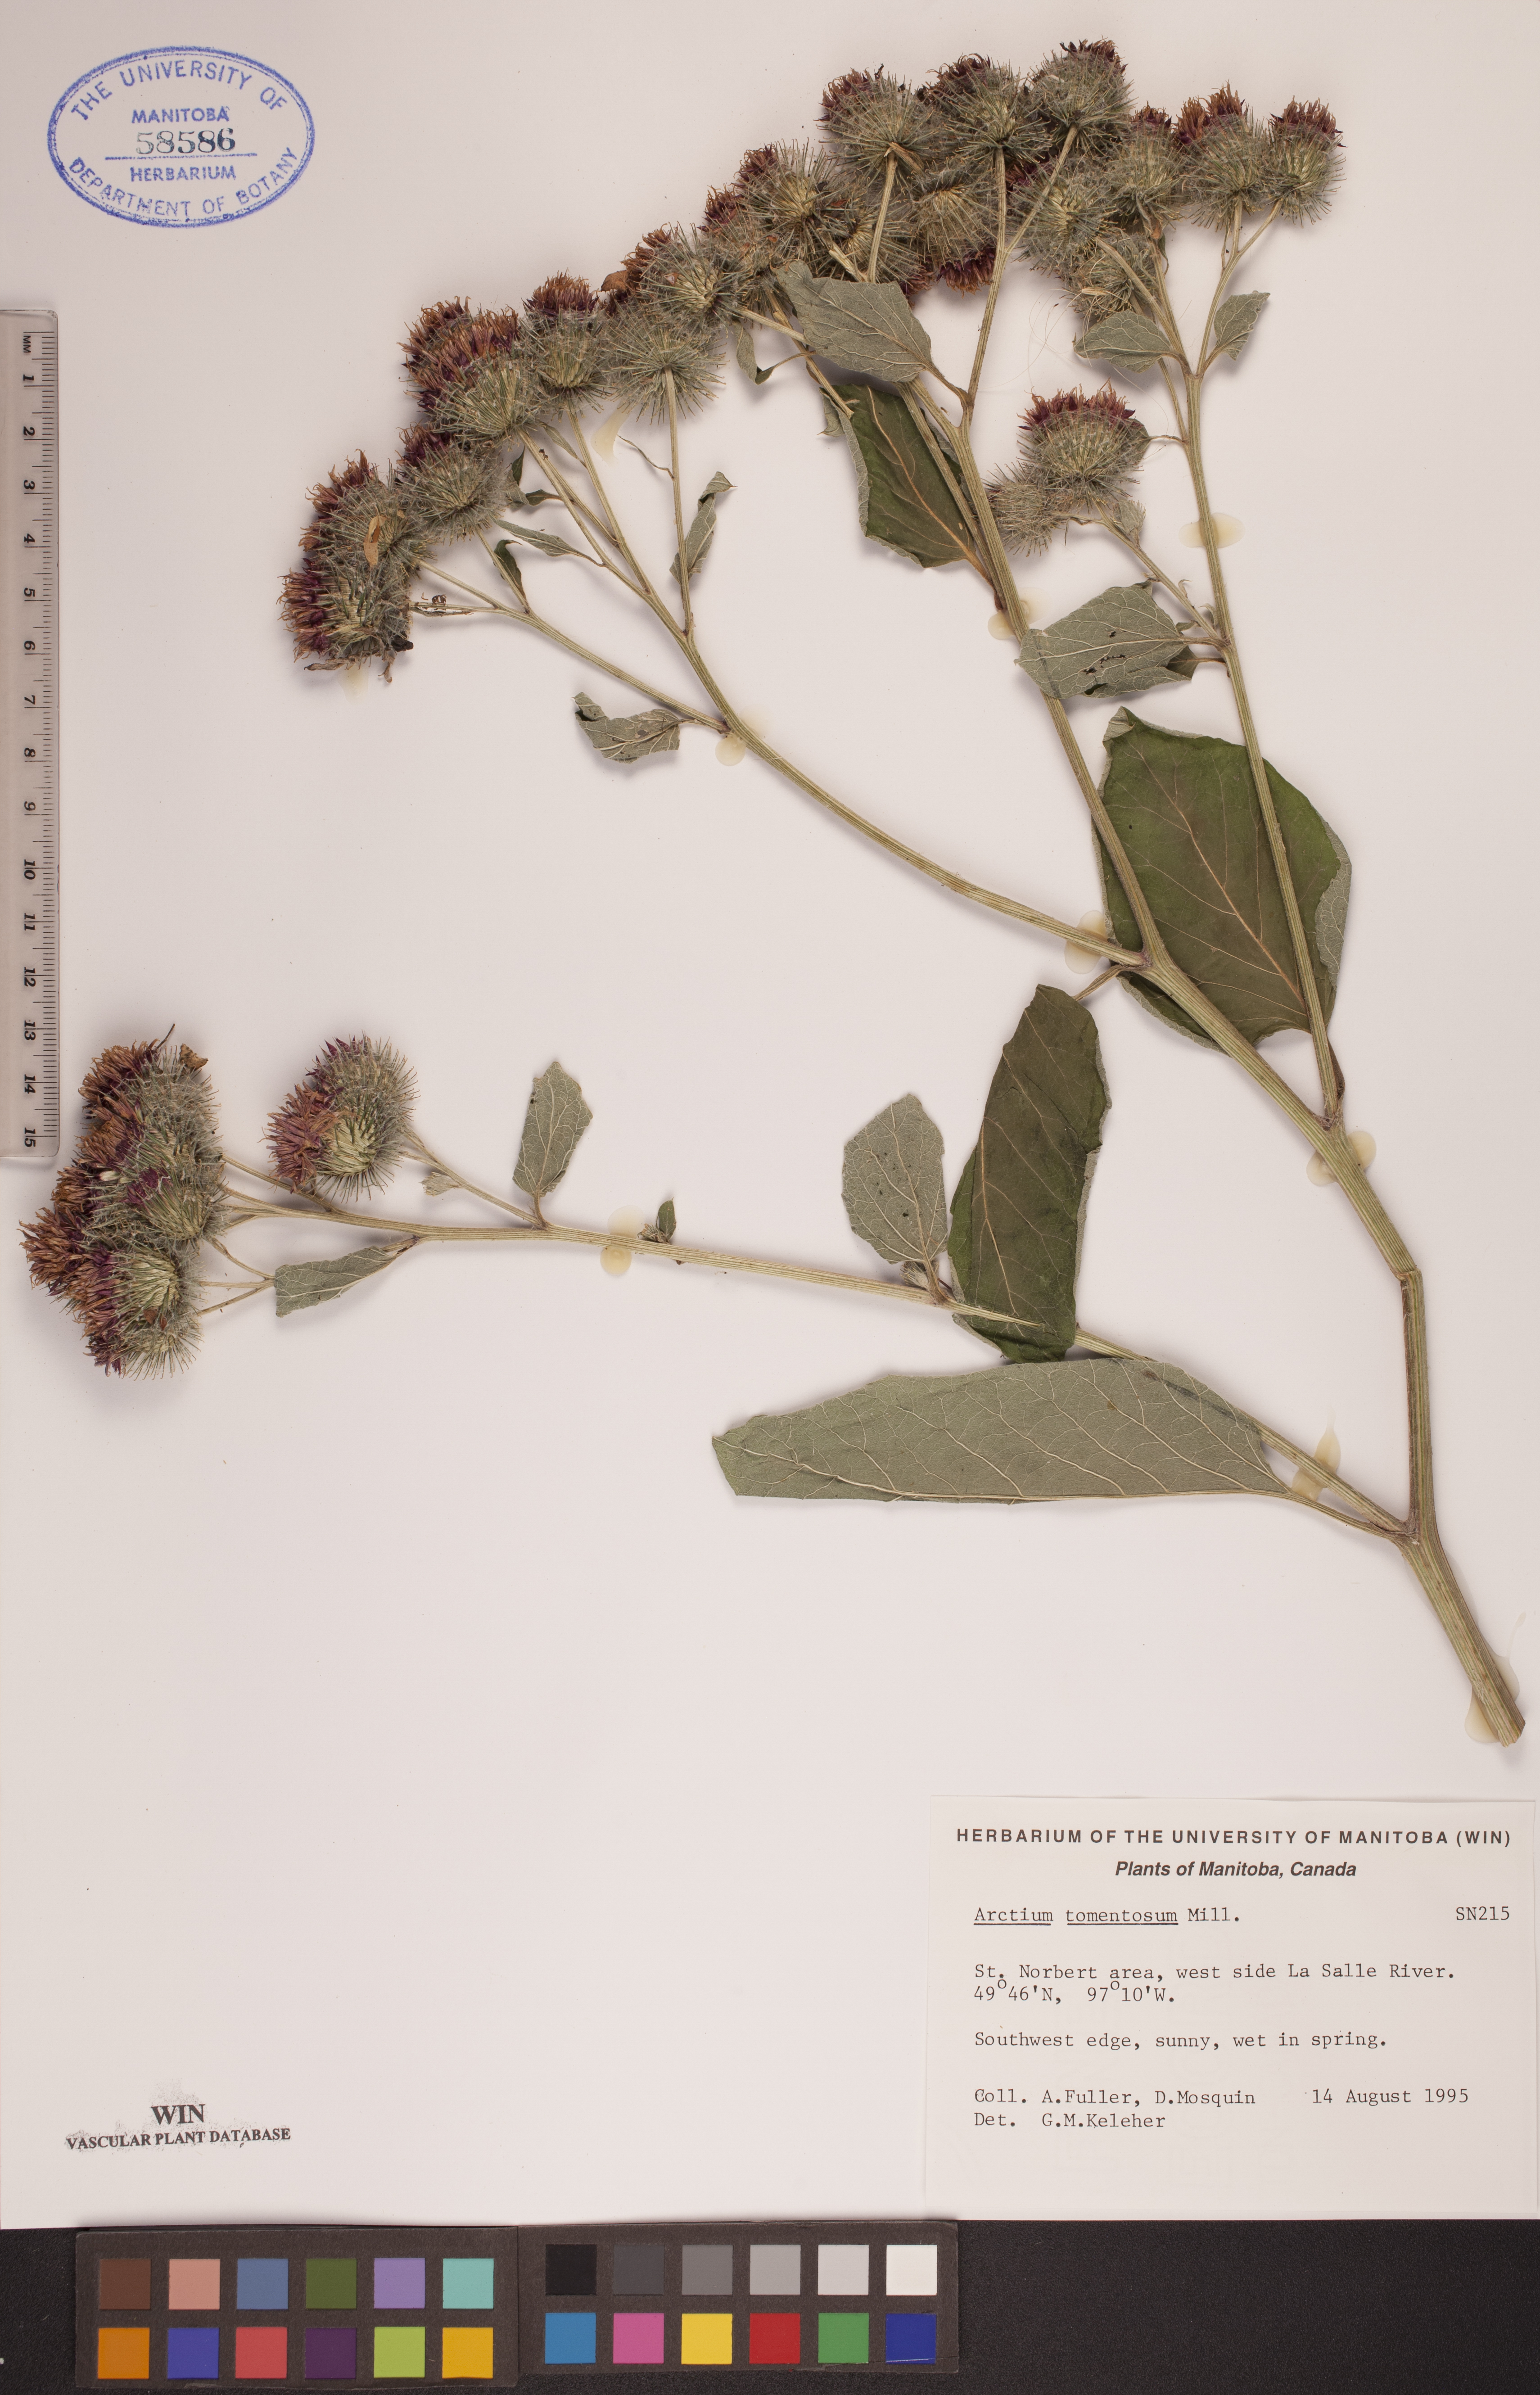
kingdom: Plantae
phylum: Tracheophyta
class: Magnoliopsida
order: Asterales
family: Asteraceae
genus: Arctium
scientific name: Arctium tomentosum
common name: Woolly burdock
